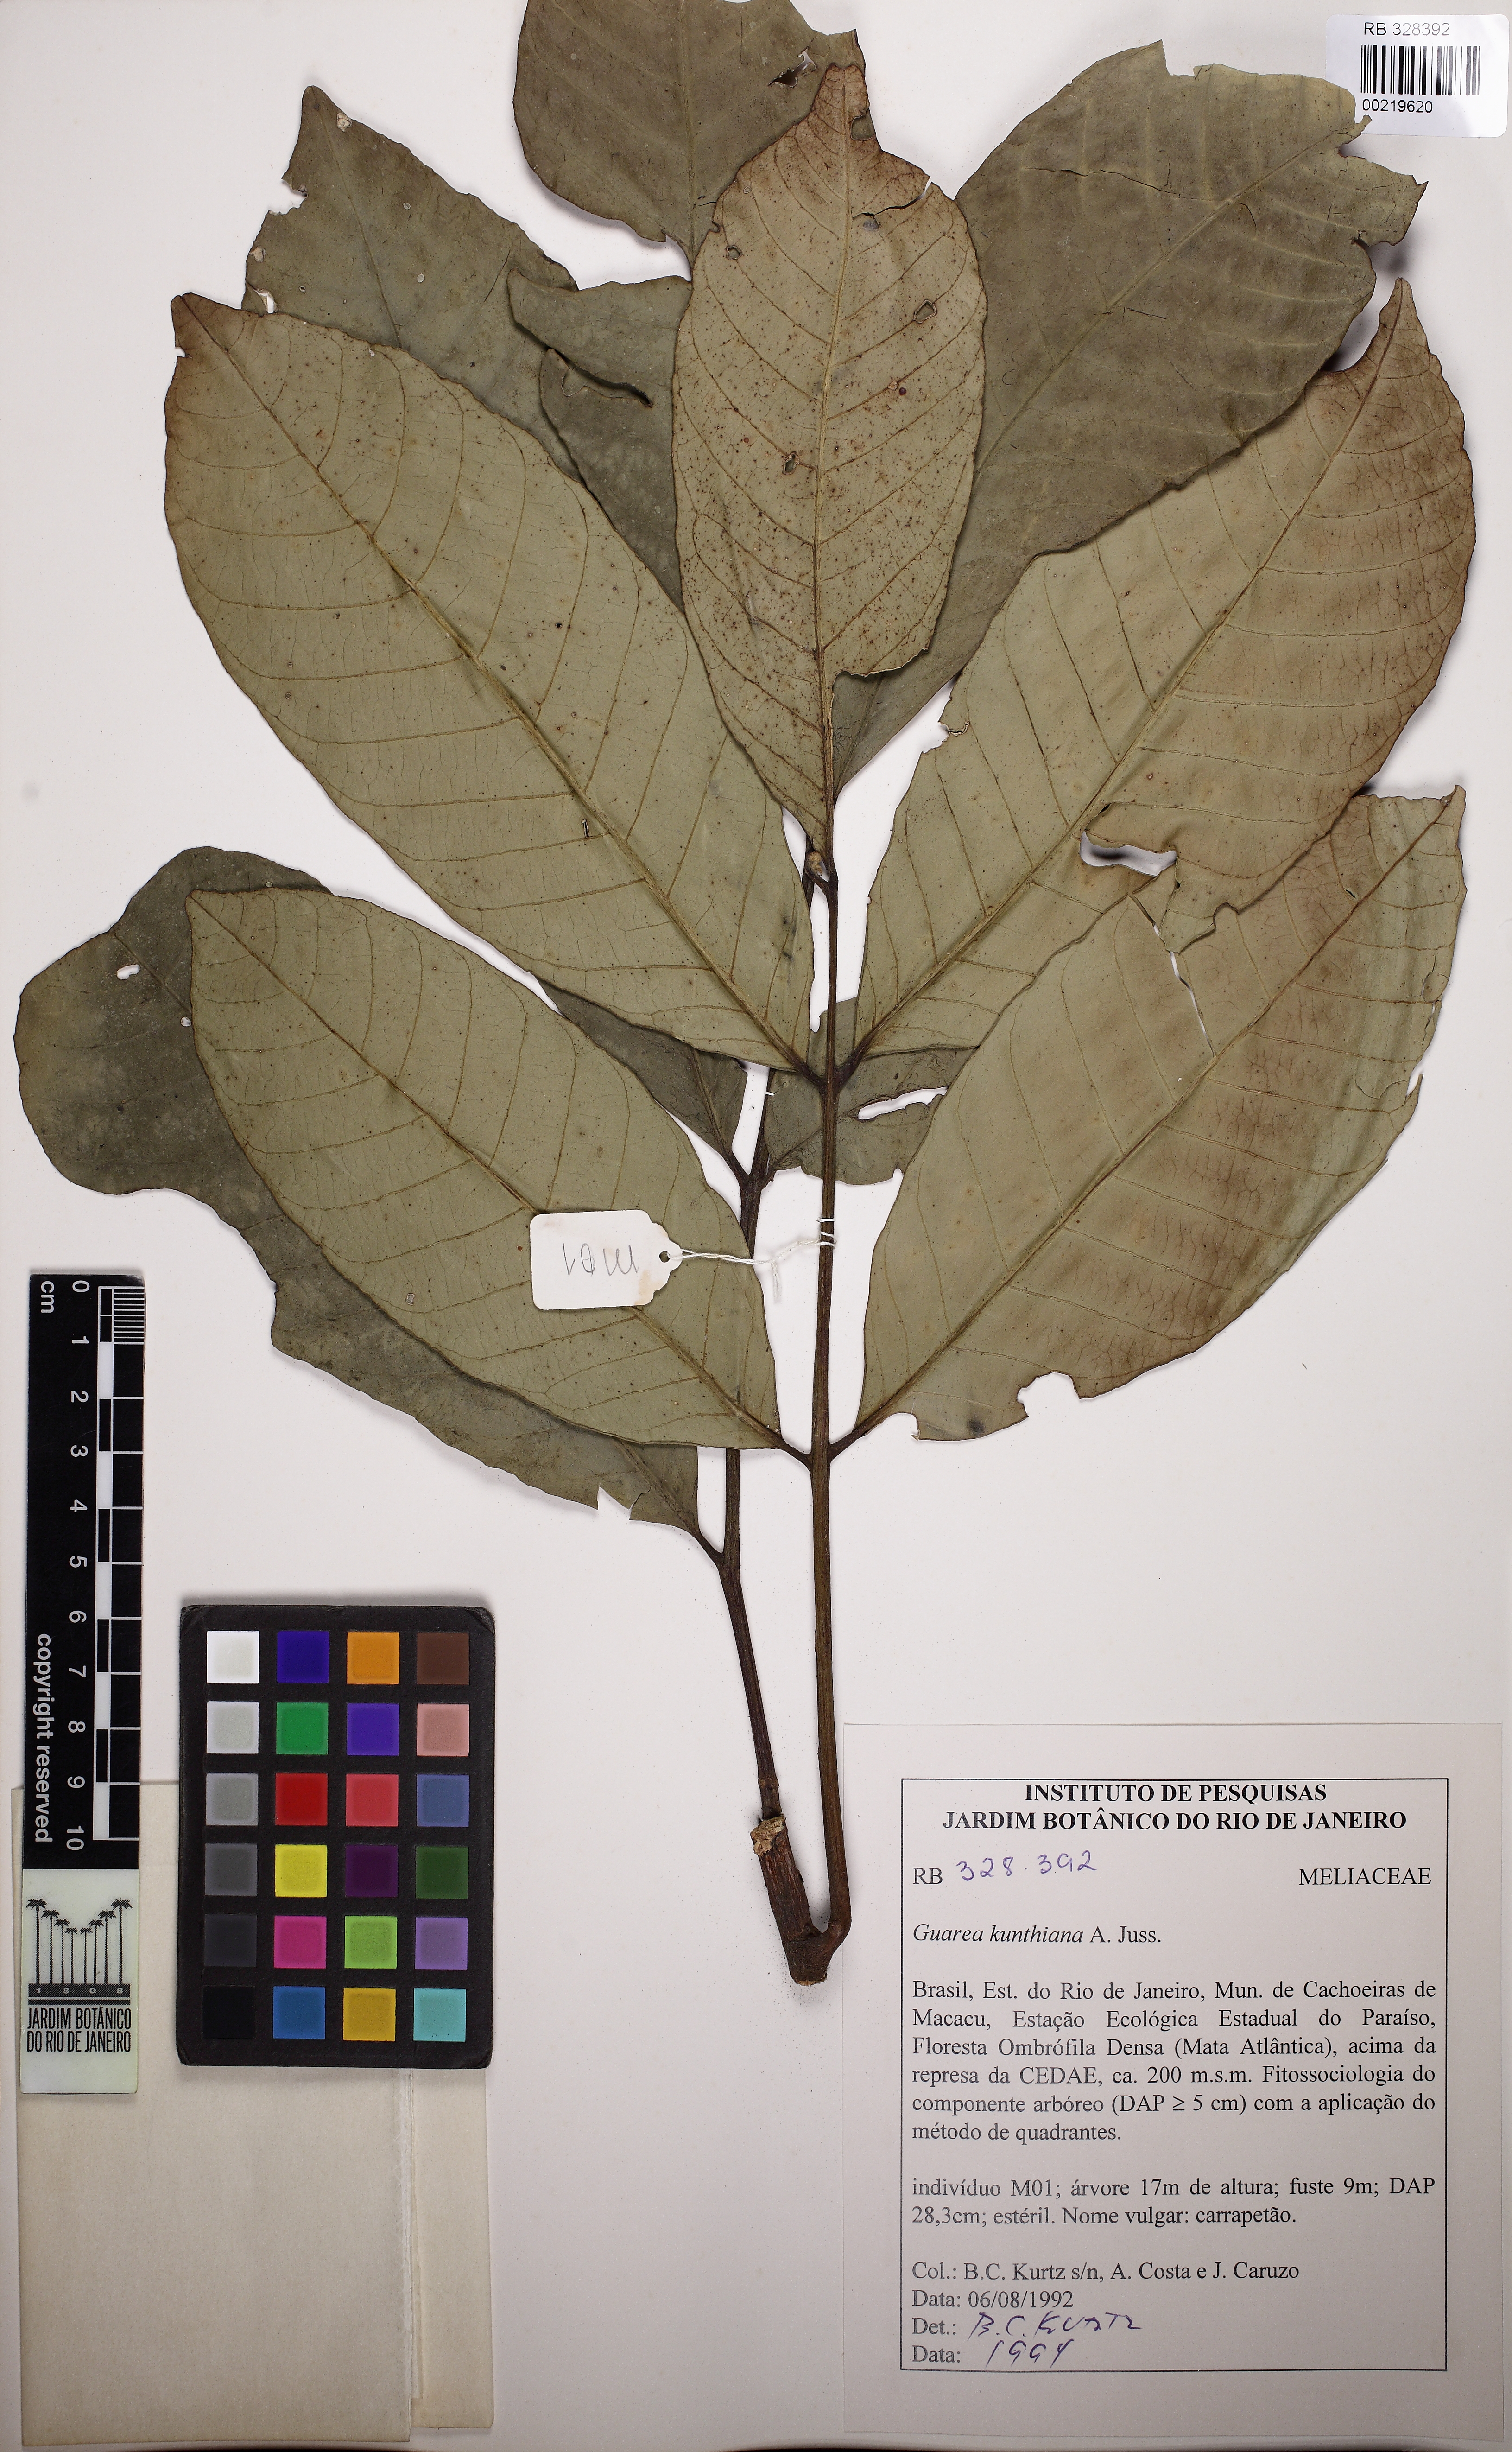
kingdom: Plantae
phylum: Tracheophyta
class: Magnoliopsida
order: Sapindales
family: Meliaceae
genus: Guarea
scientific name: Guarea kunthiana
